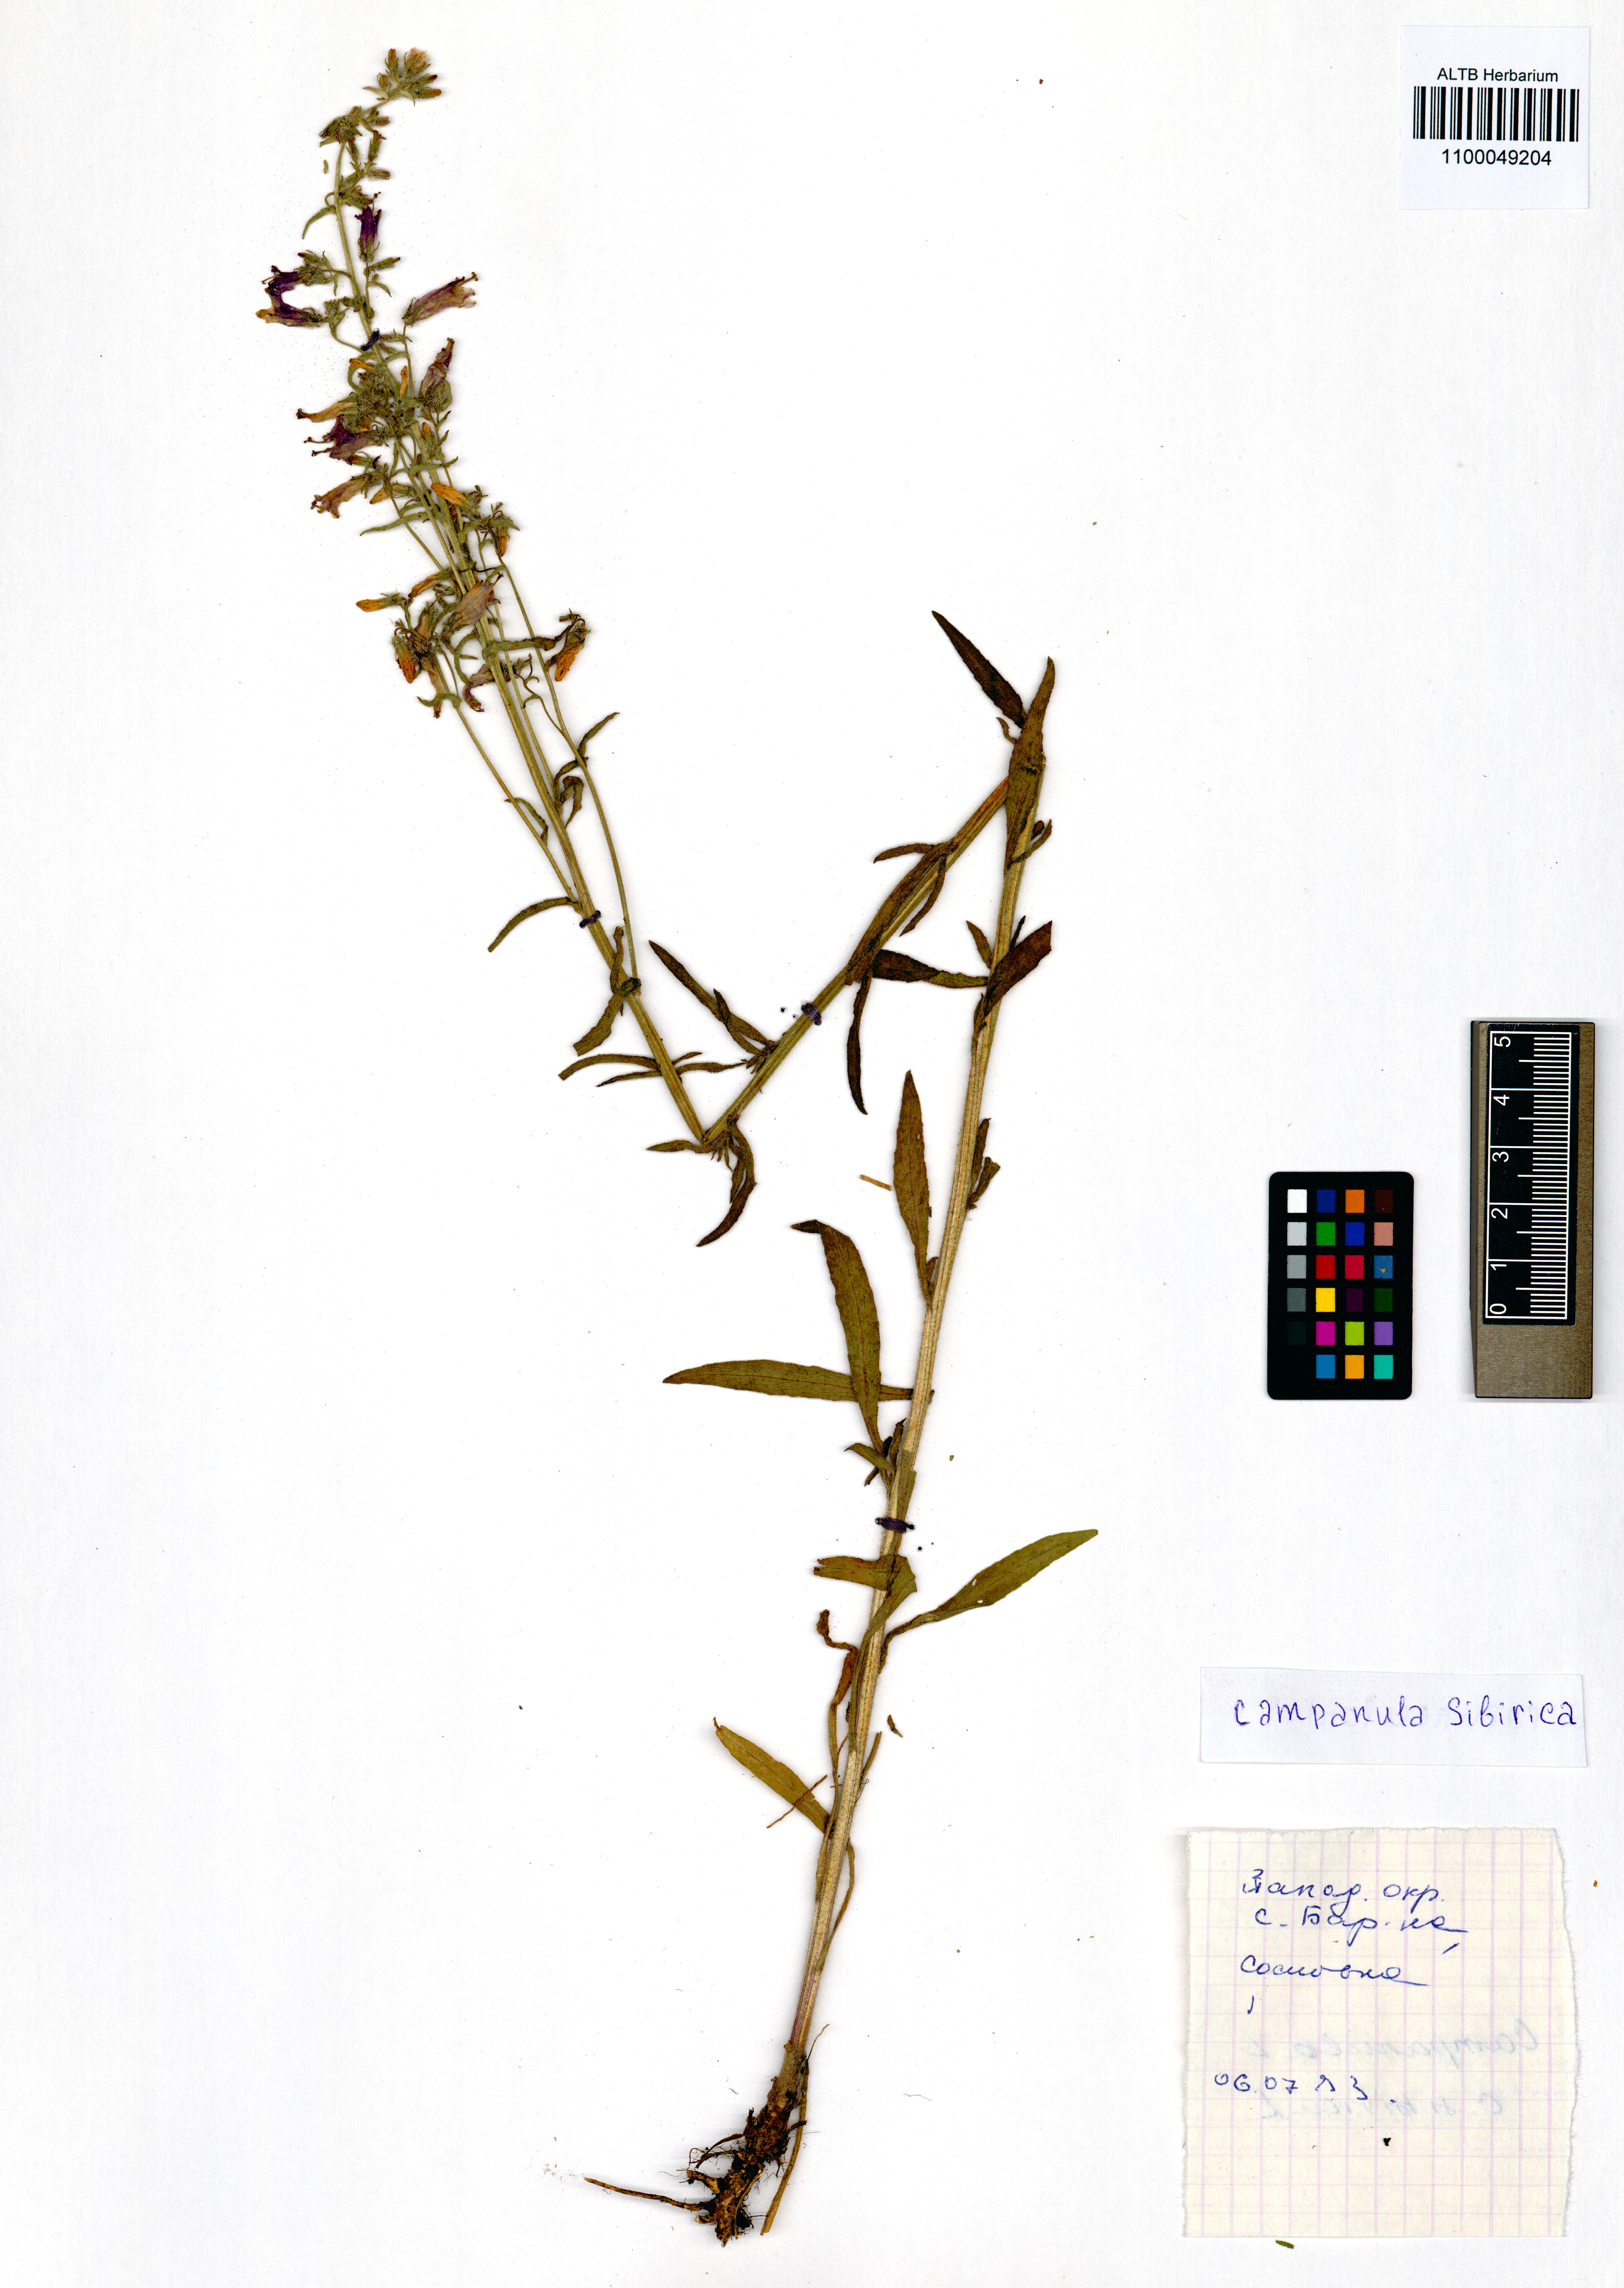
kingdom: Plantae
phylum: Tracheophyta
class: Magnoliopsida
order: Asterales
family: Campanulaceae
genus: Campanula
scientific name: Campanula sibirica
